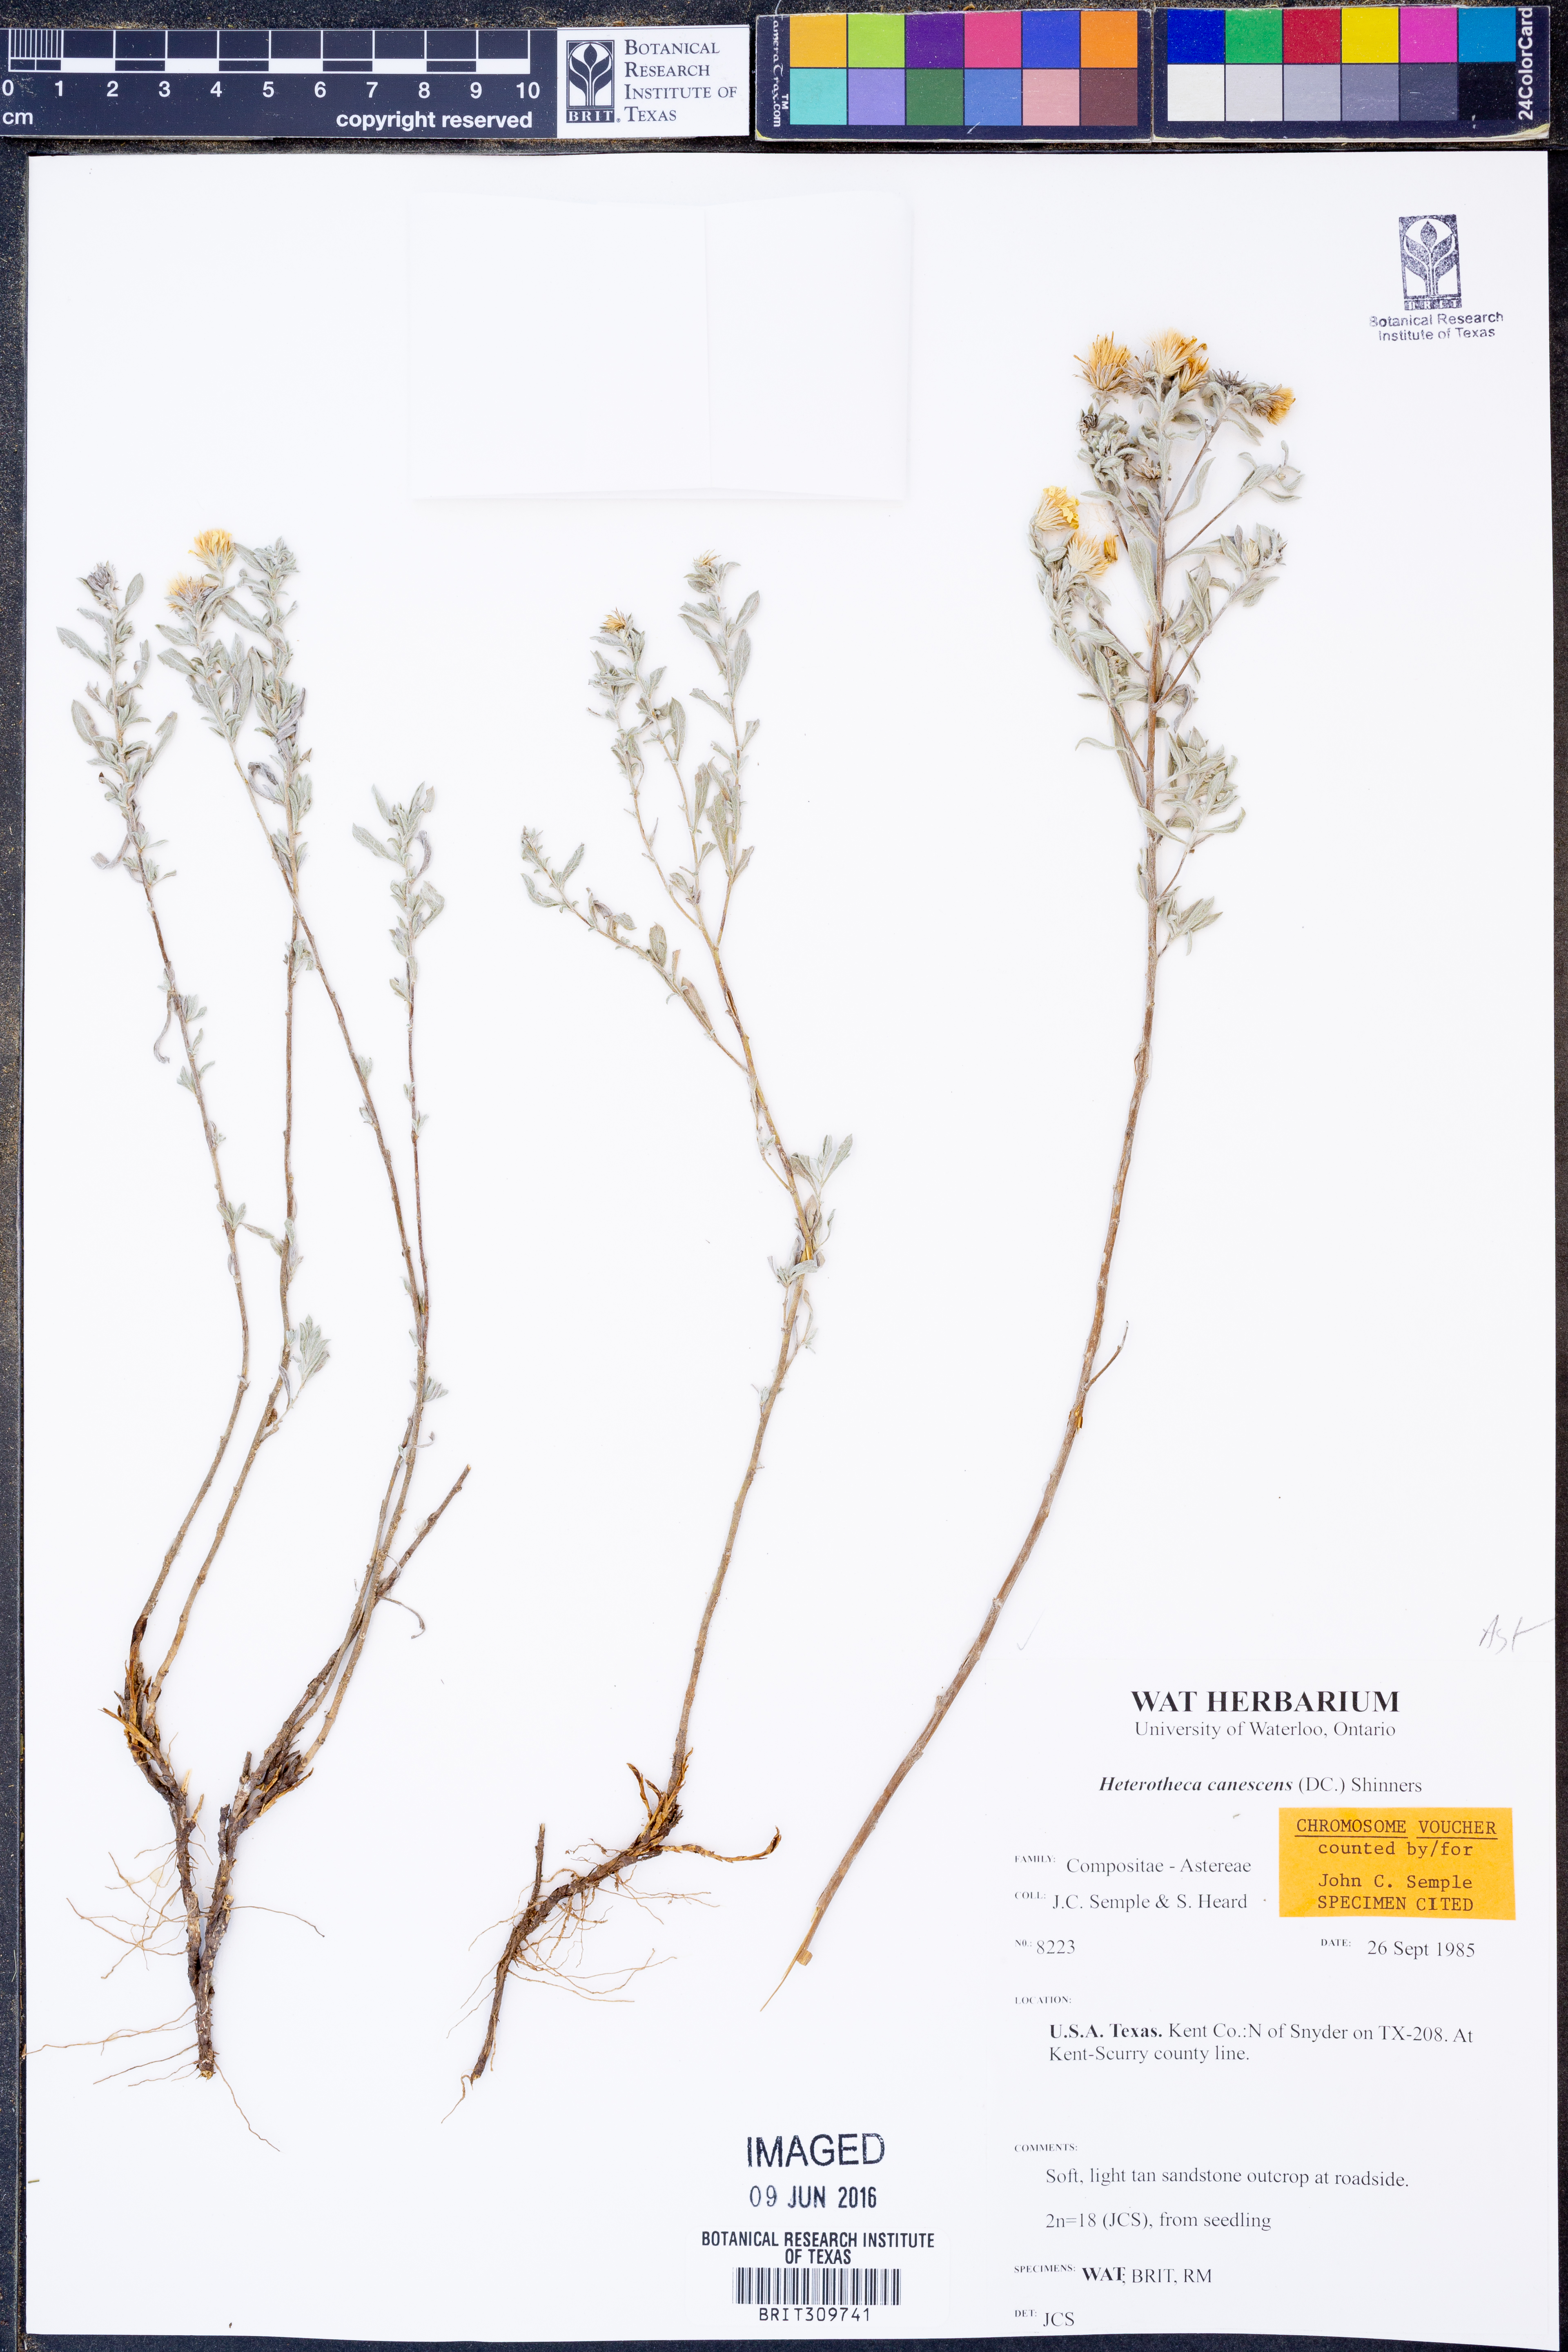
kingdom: Plantae
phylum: Tracheophyta
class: Magnoliopsida
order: Asterales
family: Asteraceae
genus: Heterotheca
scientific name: Heterotheca canescens
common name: Hoary golden-aster
